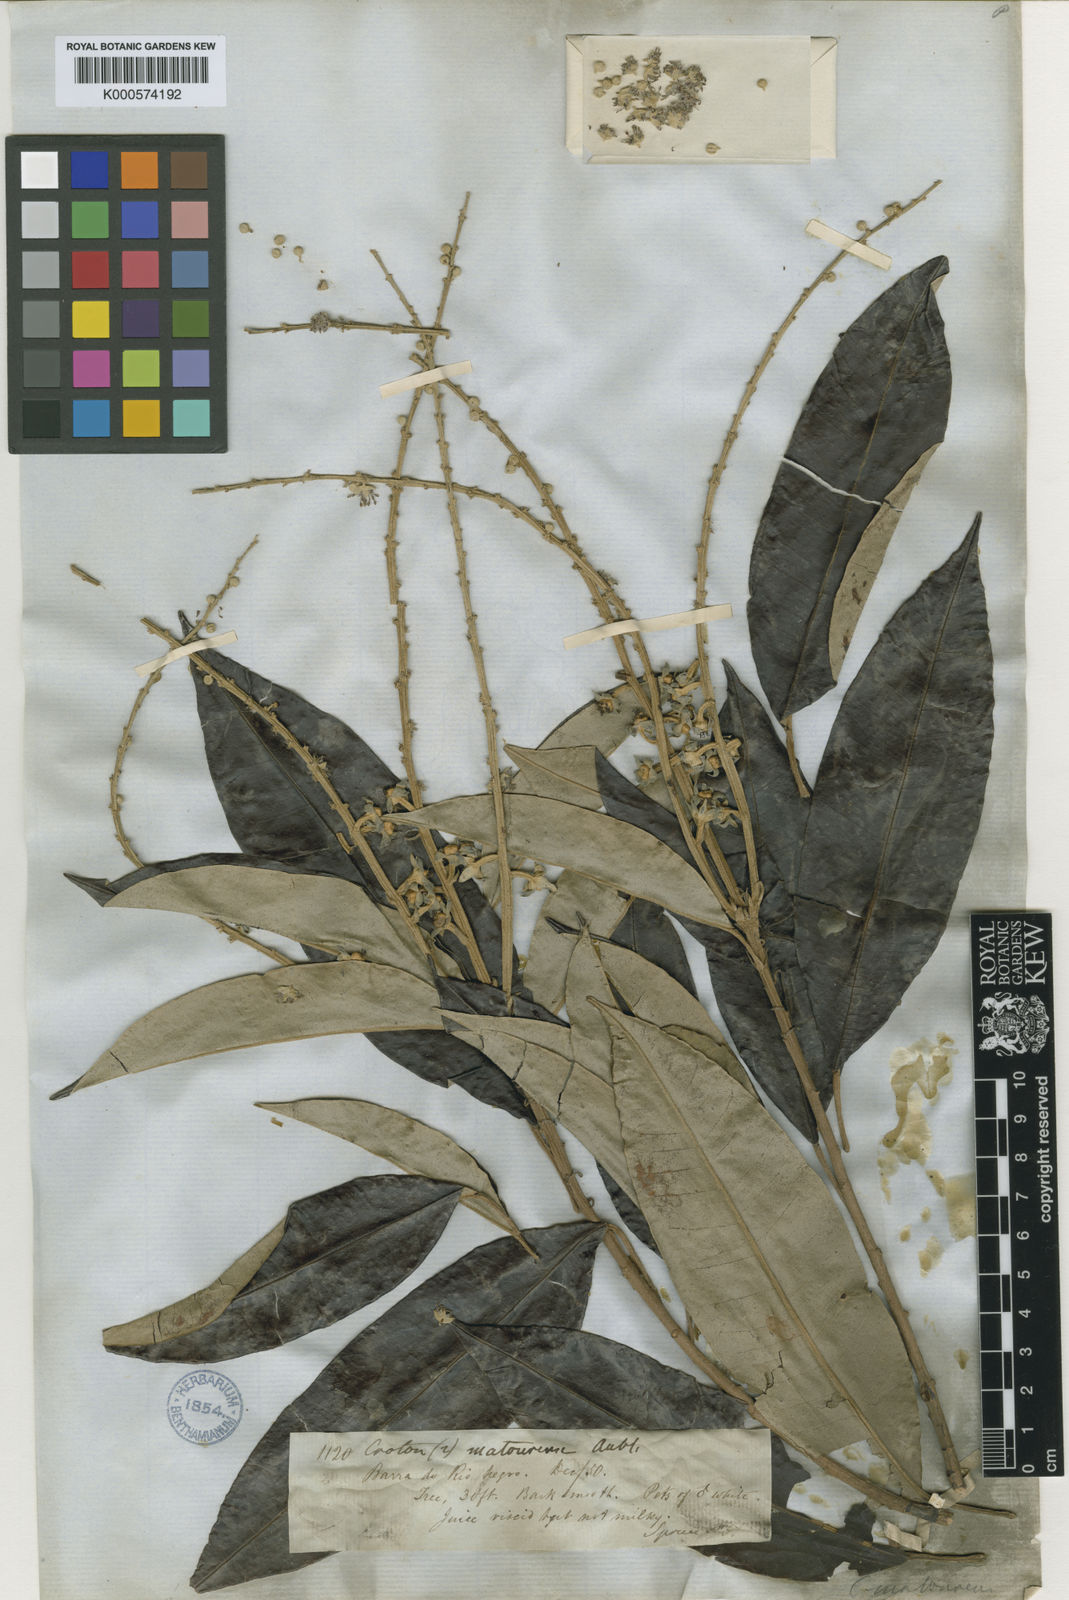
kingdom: Plantae
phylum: Tracheophyta
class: Magnoliopsida
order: Malpighiales
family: Euphorbiaceae
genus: Croton
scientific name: Croton matourensis
